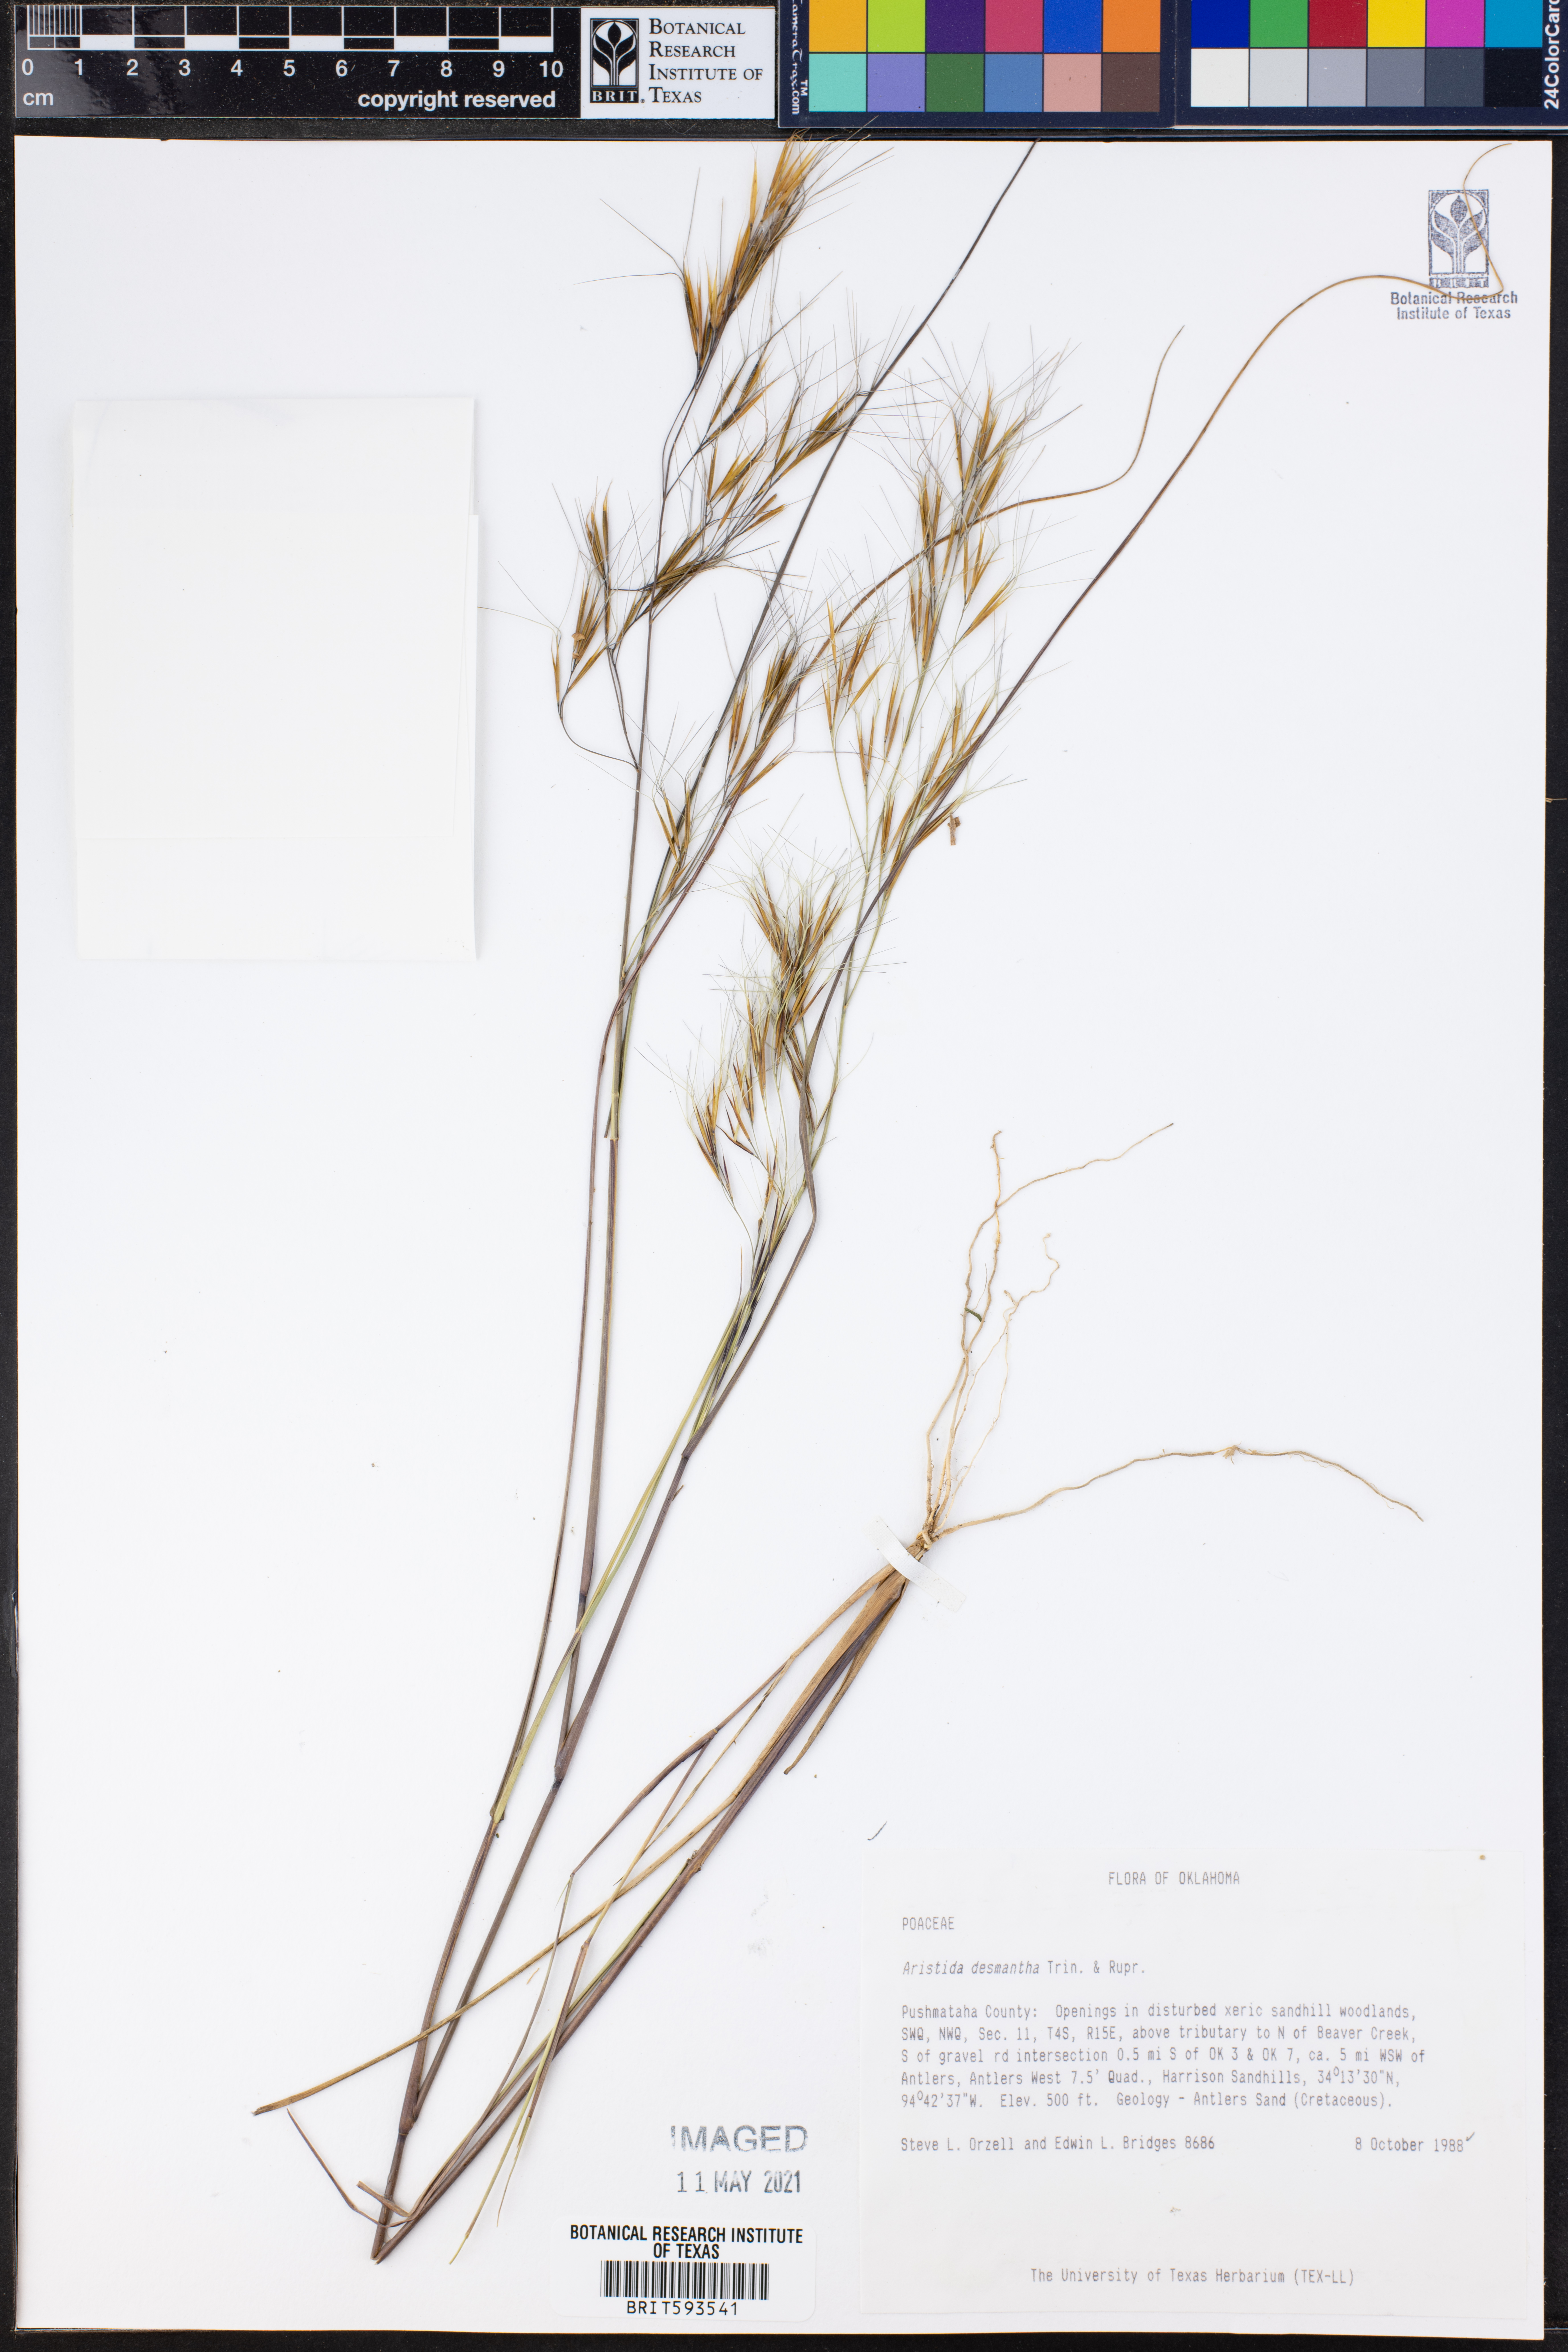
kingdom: Plantae
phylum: Tracheophyta
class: Liliopsida
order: Poales
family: Poaceae
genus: Aristida
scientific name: Aristida desmantha
